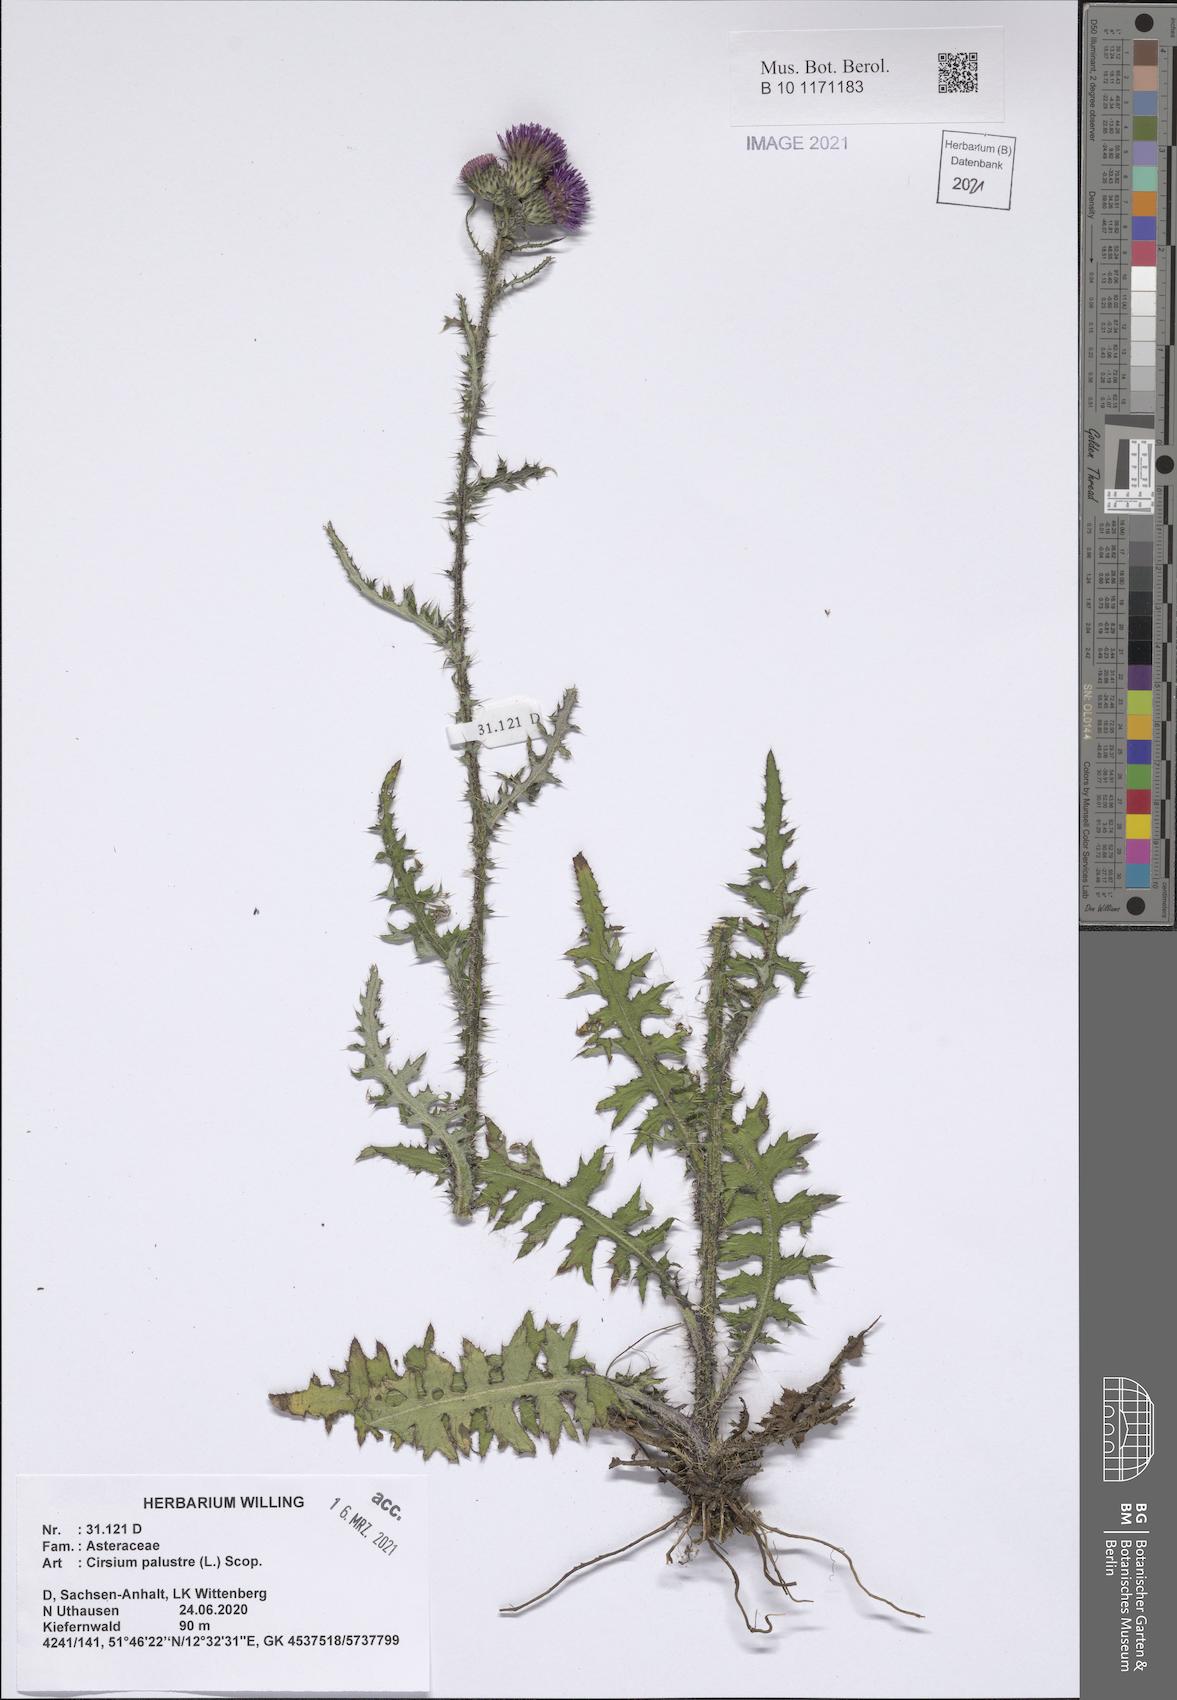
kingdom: Plantae
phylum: Tracheophyta
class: Magnoliopsida
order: Asterales
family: Asteraceae
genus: Cirsium
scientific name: Cirsium palustre
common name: Marsh thistle
